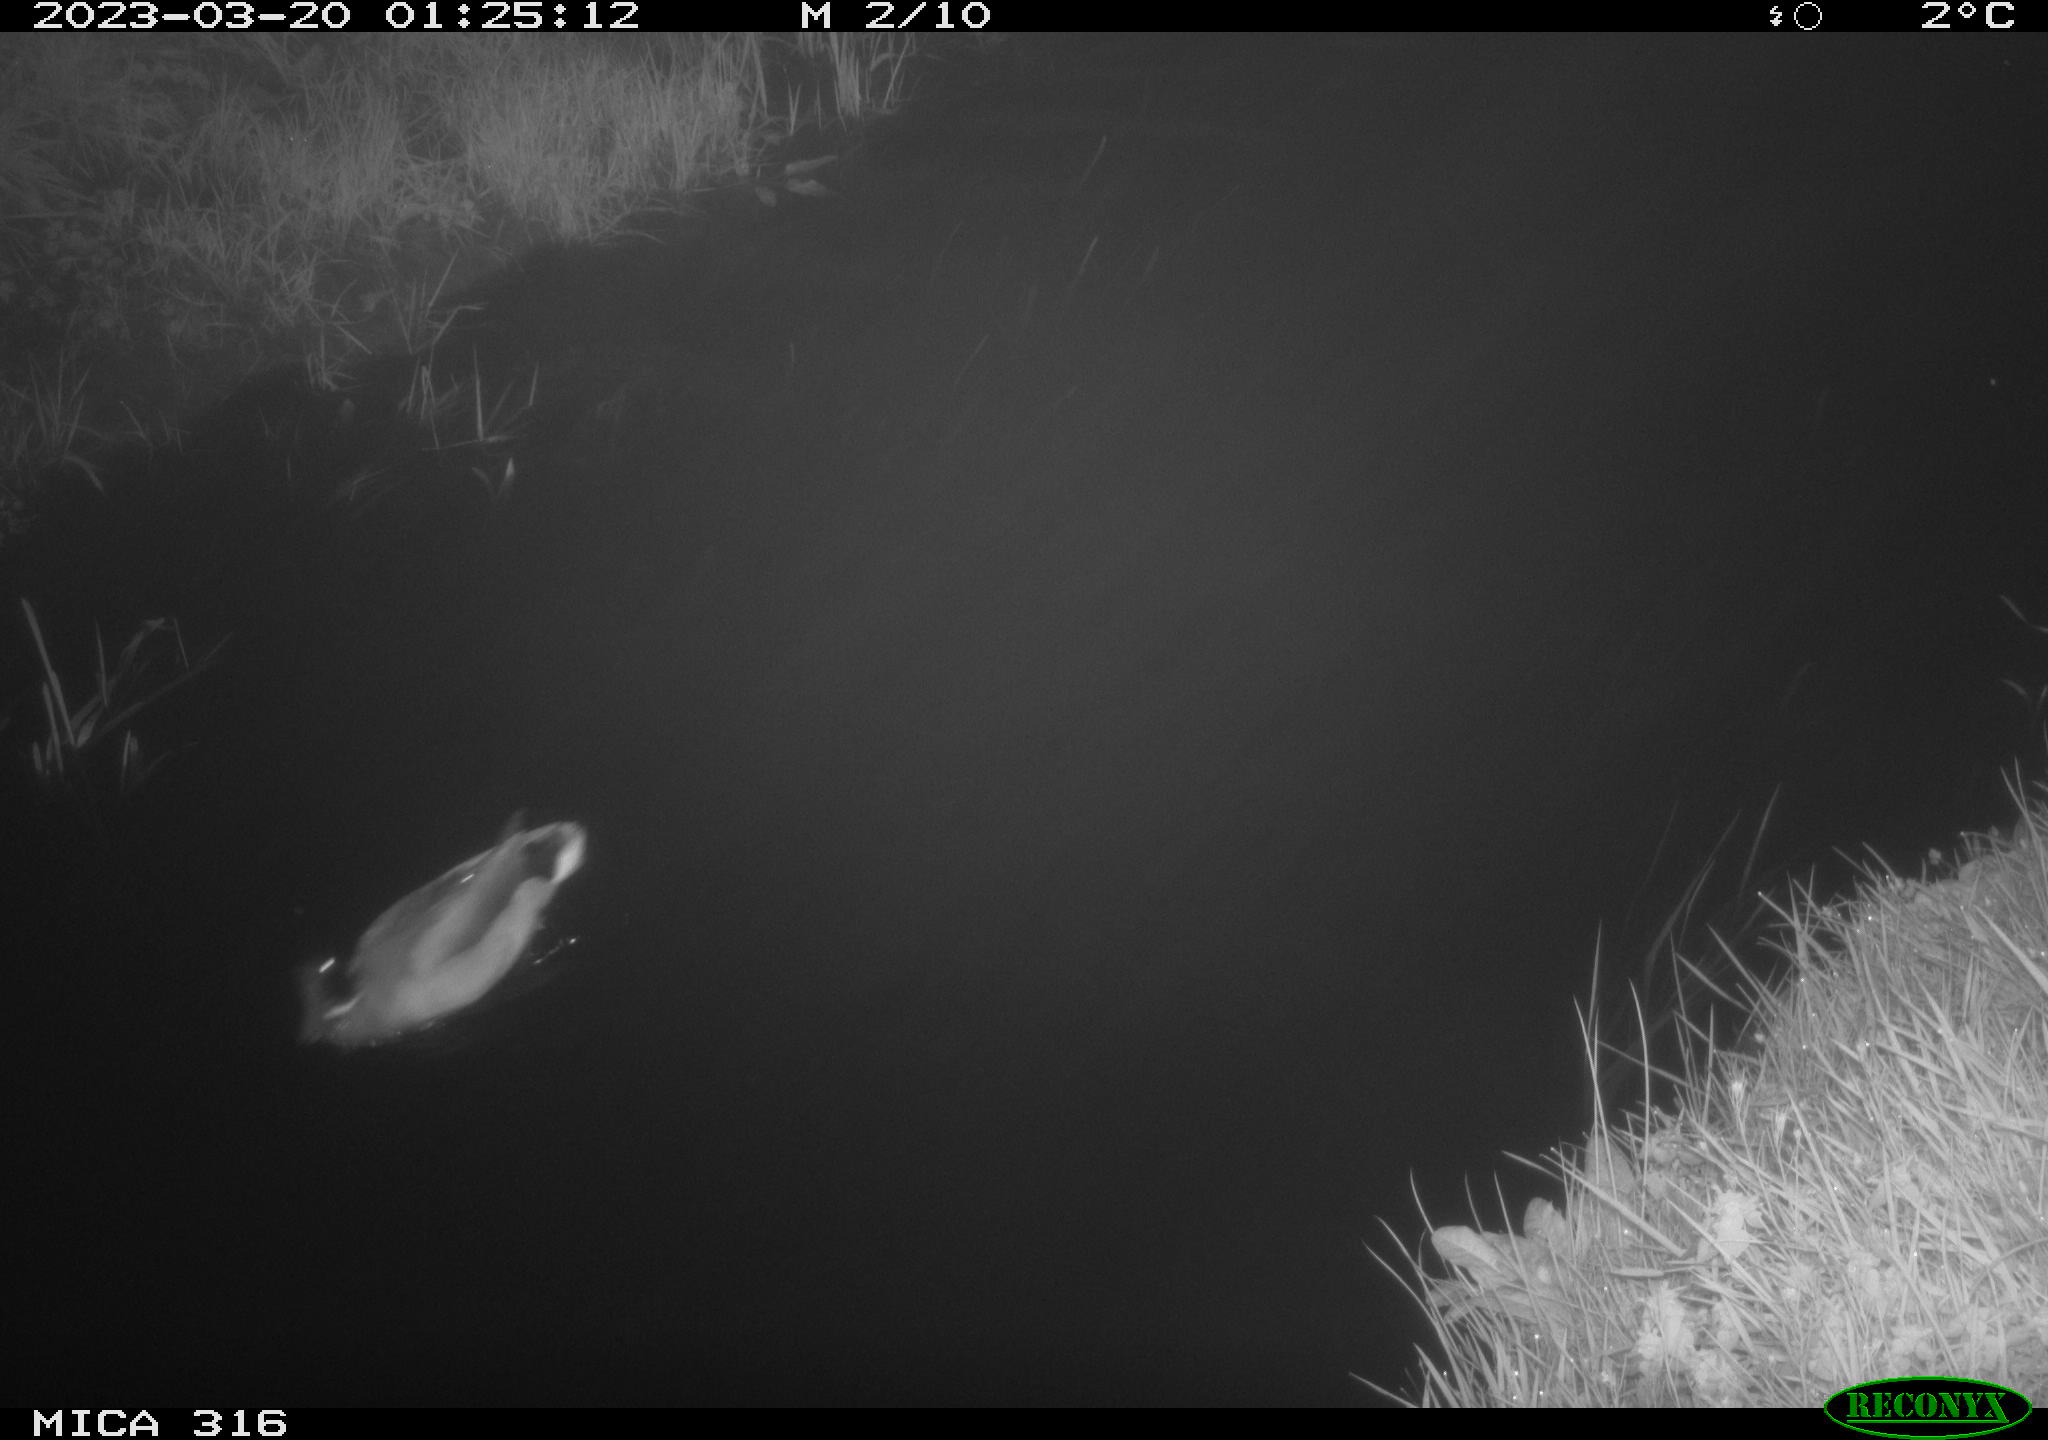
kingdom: Animalia
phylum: Chordata
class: Aves
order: Anseriformes
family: Anatidae
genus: Anas
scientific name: Anas
